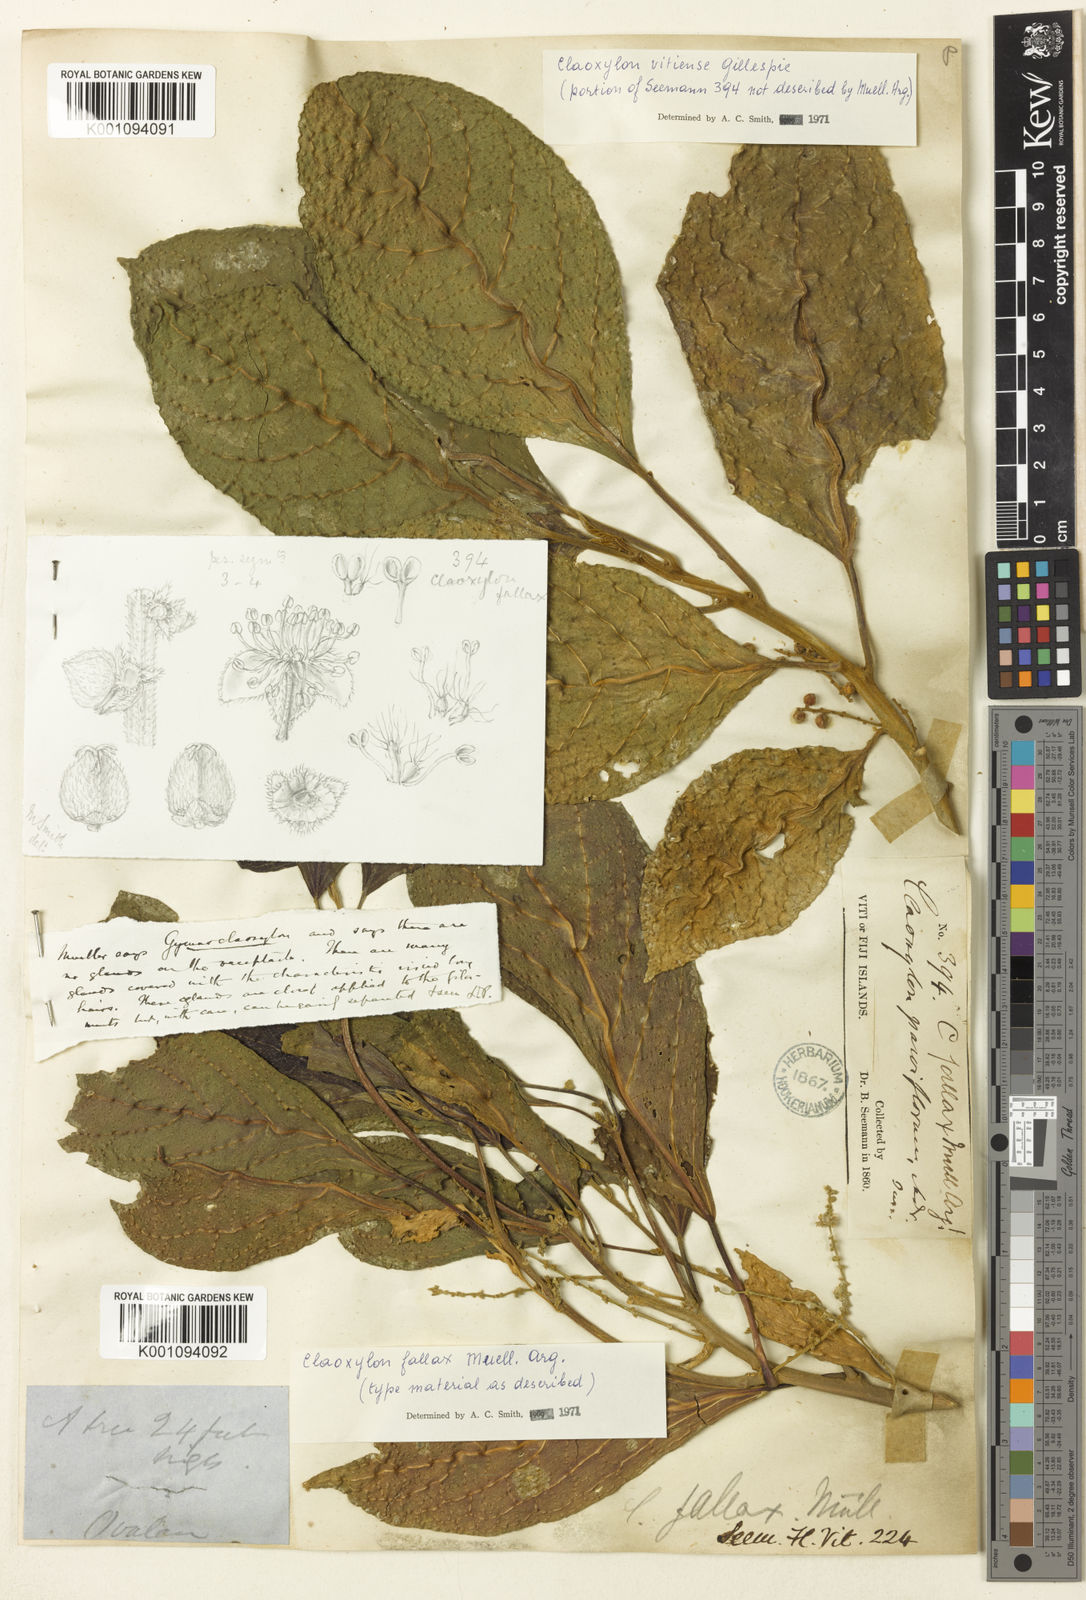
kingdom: Plantae
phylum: Tracheophyta
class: Magnoliopsida
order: Malpighiales
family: Euphorbiaceae
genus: Claoxylon
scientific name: Claoxylon
